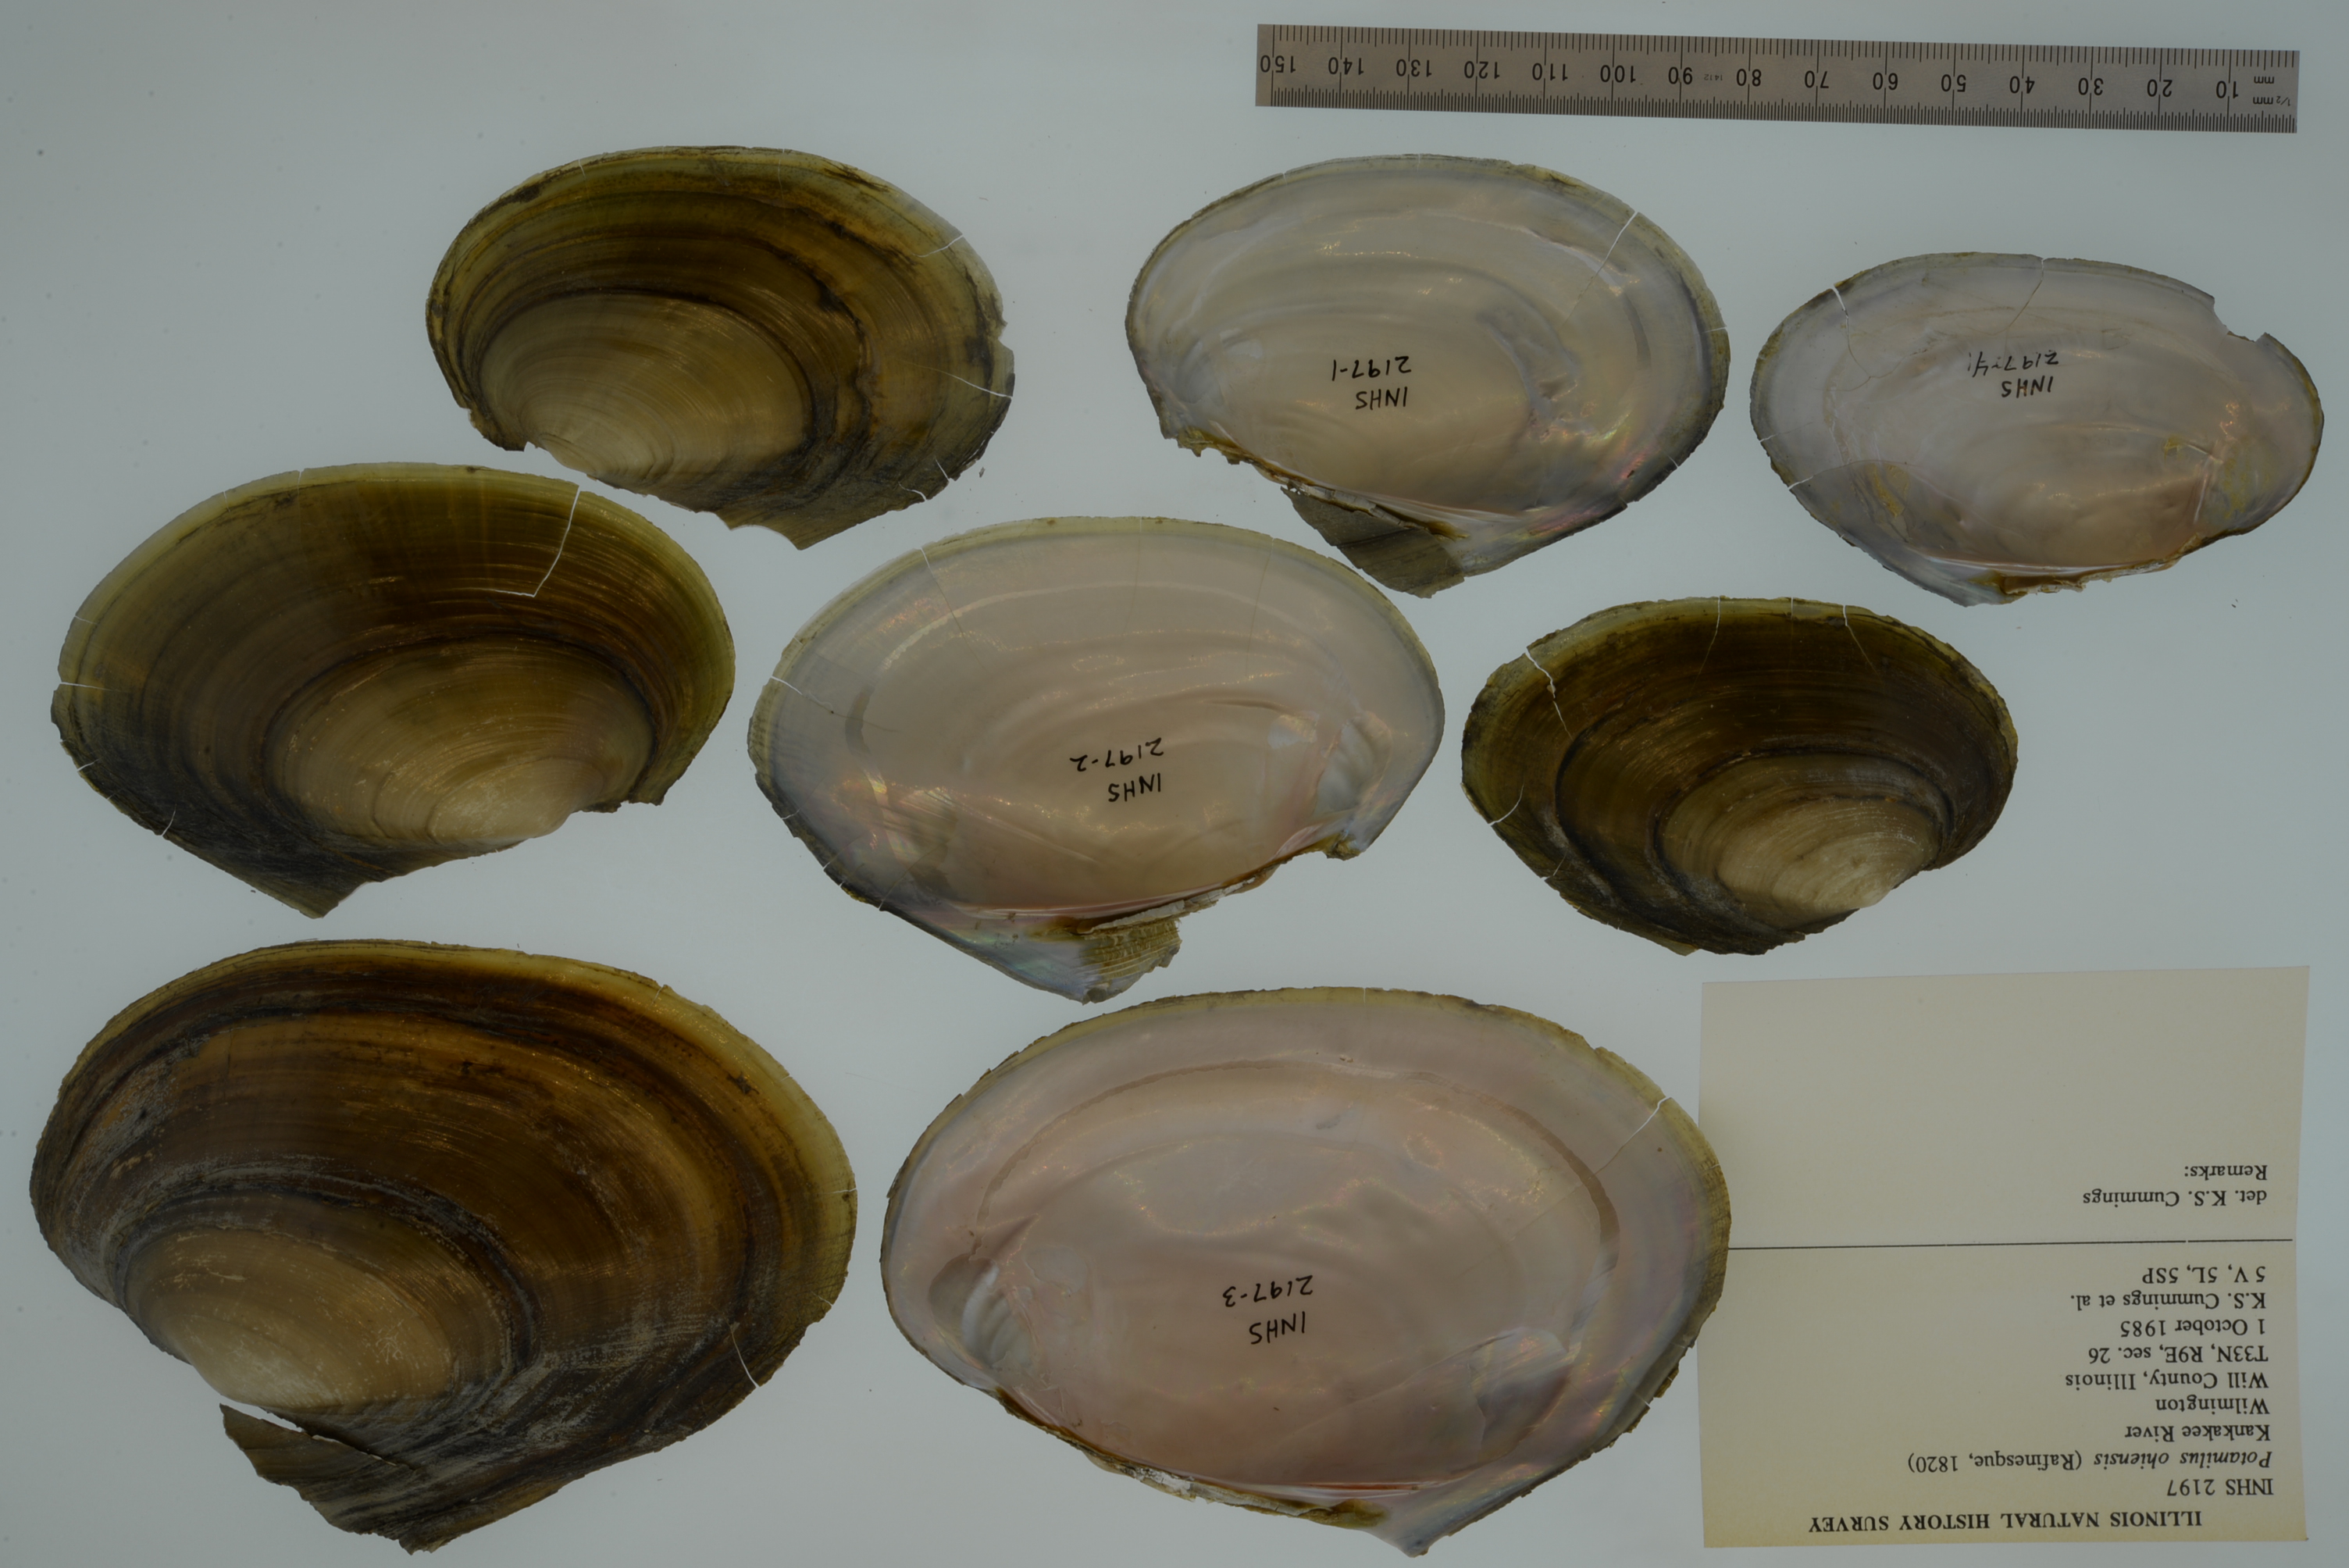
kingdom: Animalia
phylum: Mollusca
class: Bivalvia
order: Unionida
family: Unionidae
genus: Potamilus
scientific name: Potamilus ohiensis
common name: Pink papershell
